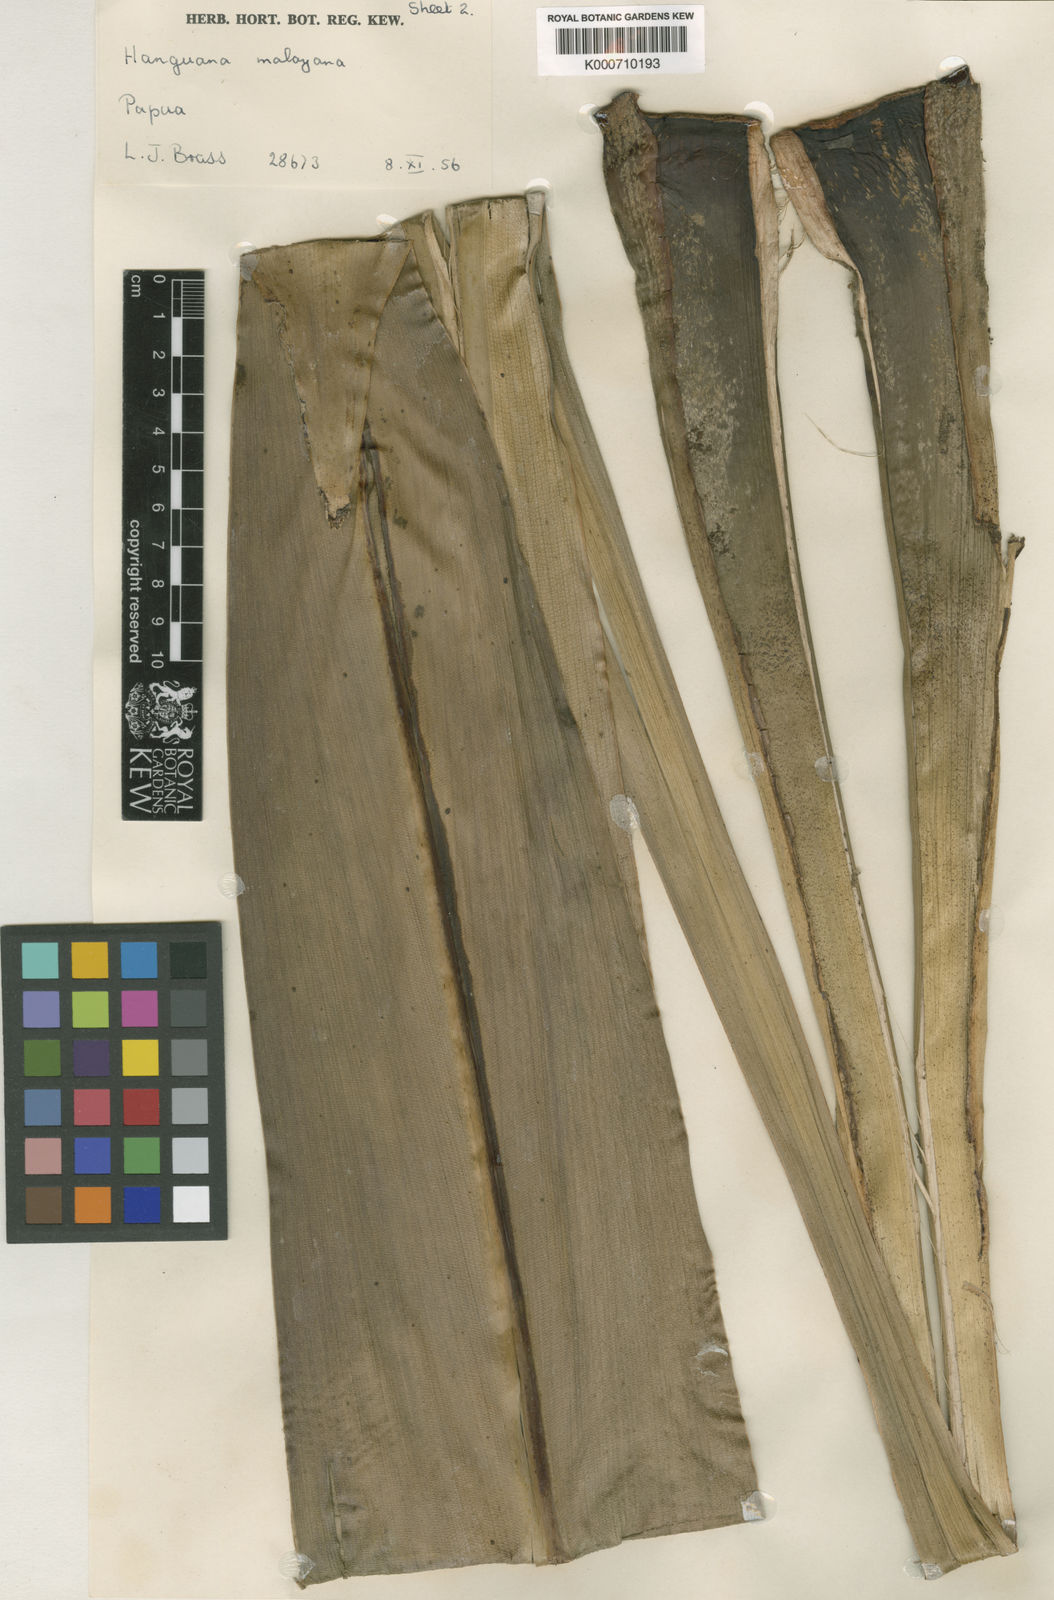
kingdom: Plantae
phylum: Tracheophyta
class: Liliopsida
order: Commelinales
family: Hanguanaceae
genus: Hanguana
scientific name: Hanguana malayana
